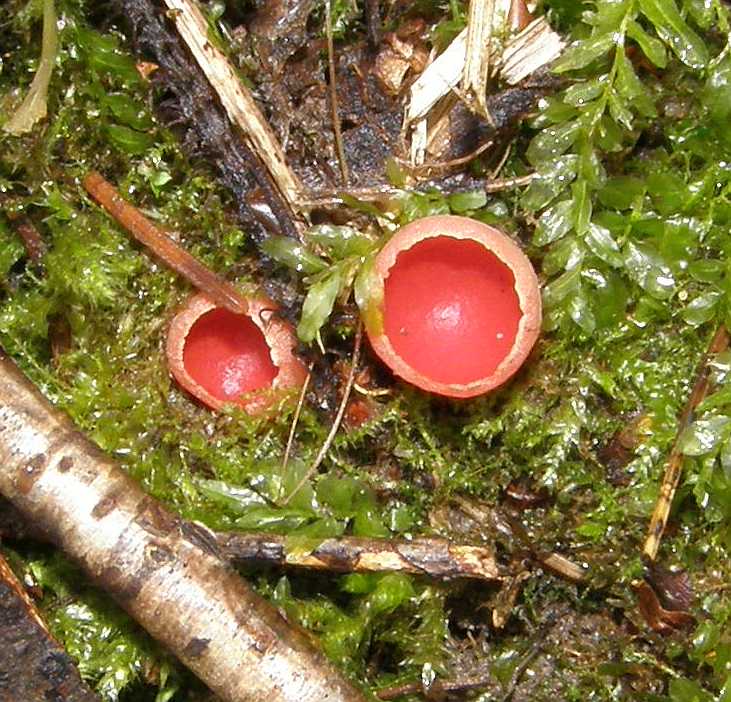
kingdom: Fungi
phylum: Ascomycota
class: Pezizomycetes
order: Pezizales
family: Sarcoscyphaceae
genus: Sarcoscypha
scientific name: Sarcoscypha austriaca
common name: krølhåret pragtbæger
